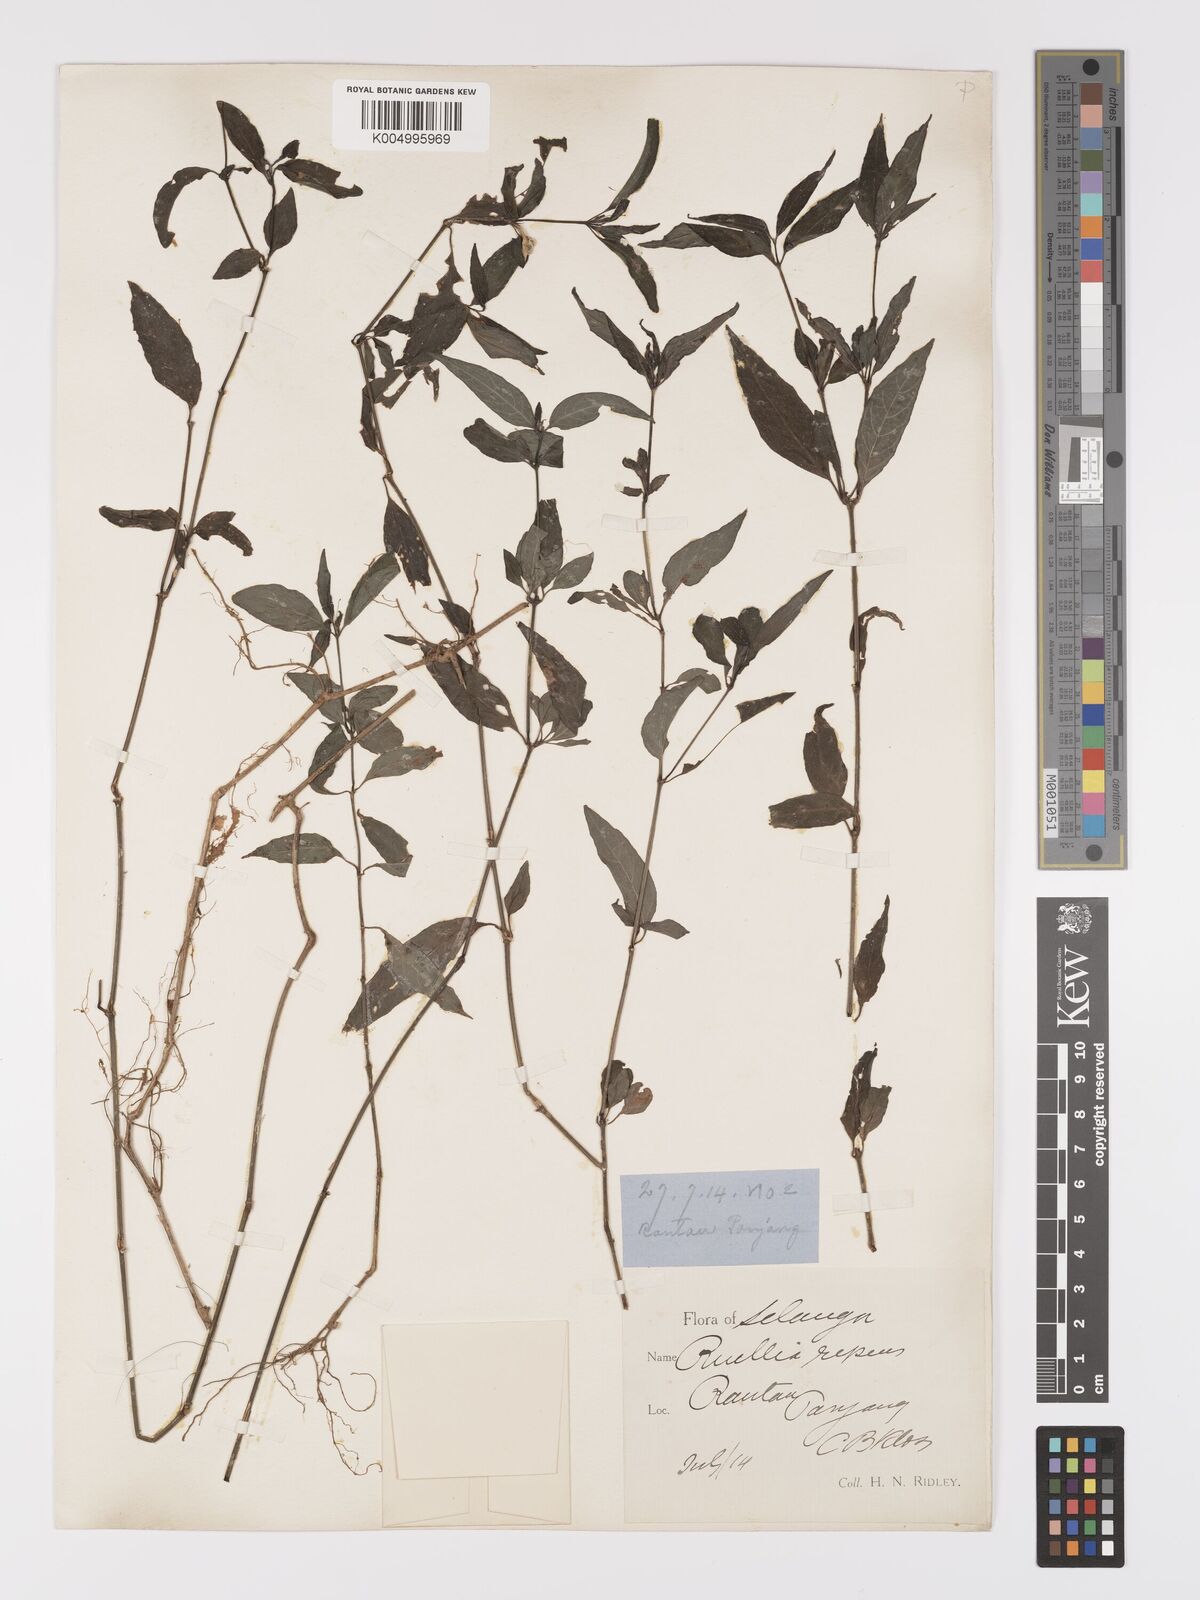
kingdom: Plantae
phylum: Tracheophyta
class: Magnoliopsida
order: Lamiales
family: Acanthaceae
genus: Ruellia
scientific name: Ruellia
